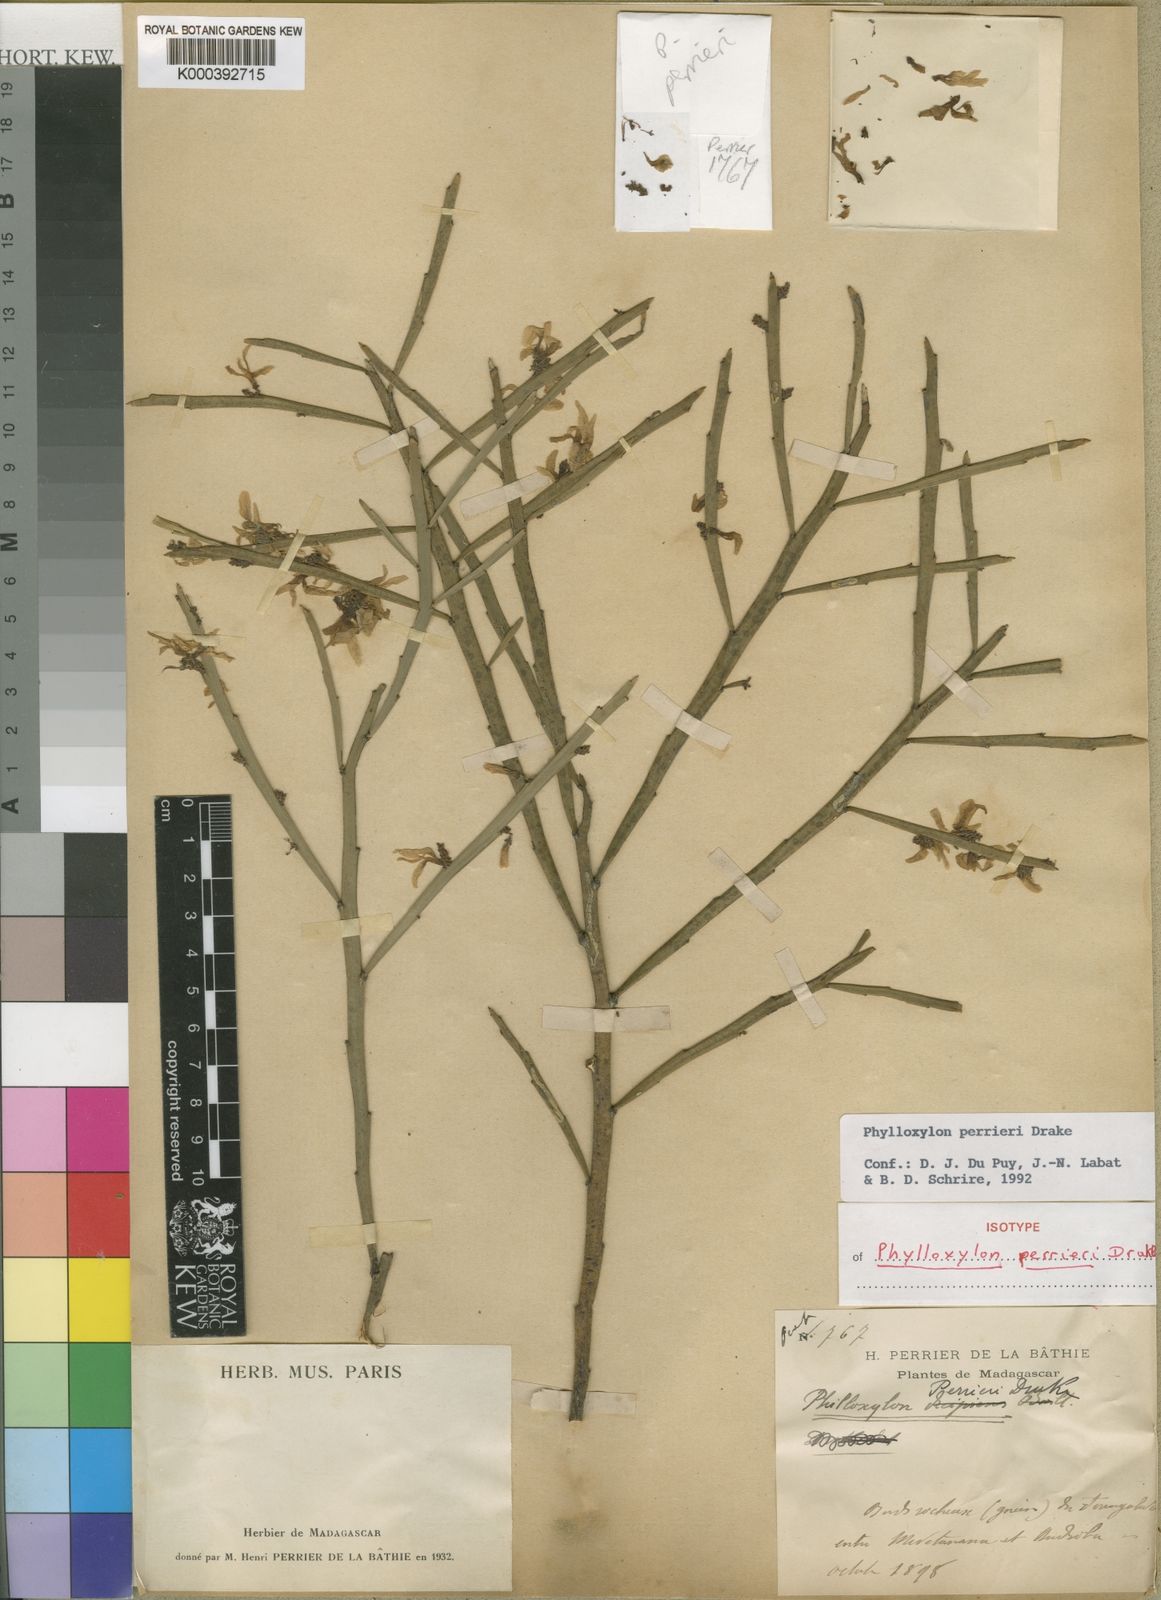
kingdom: Plantae
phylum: Tracheophyta
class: Magnoliopsida
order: Fabales
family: Fabaceae
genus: Phylloxylon
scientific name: Phylloxylon perrieri
